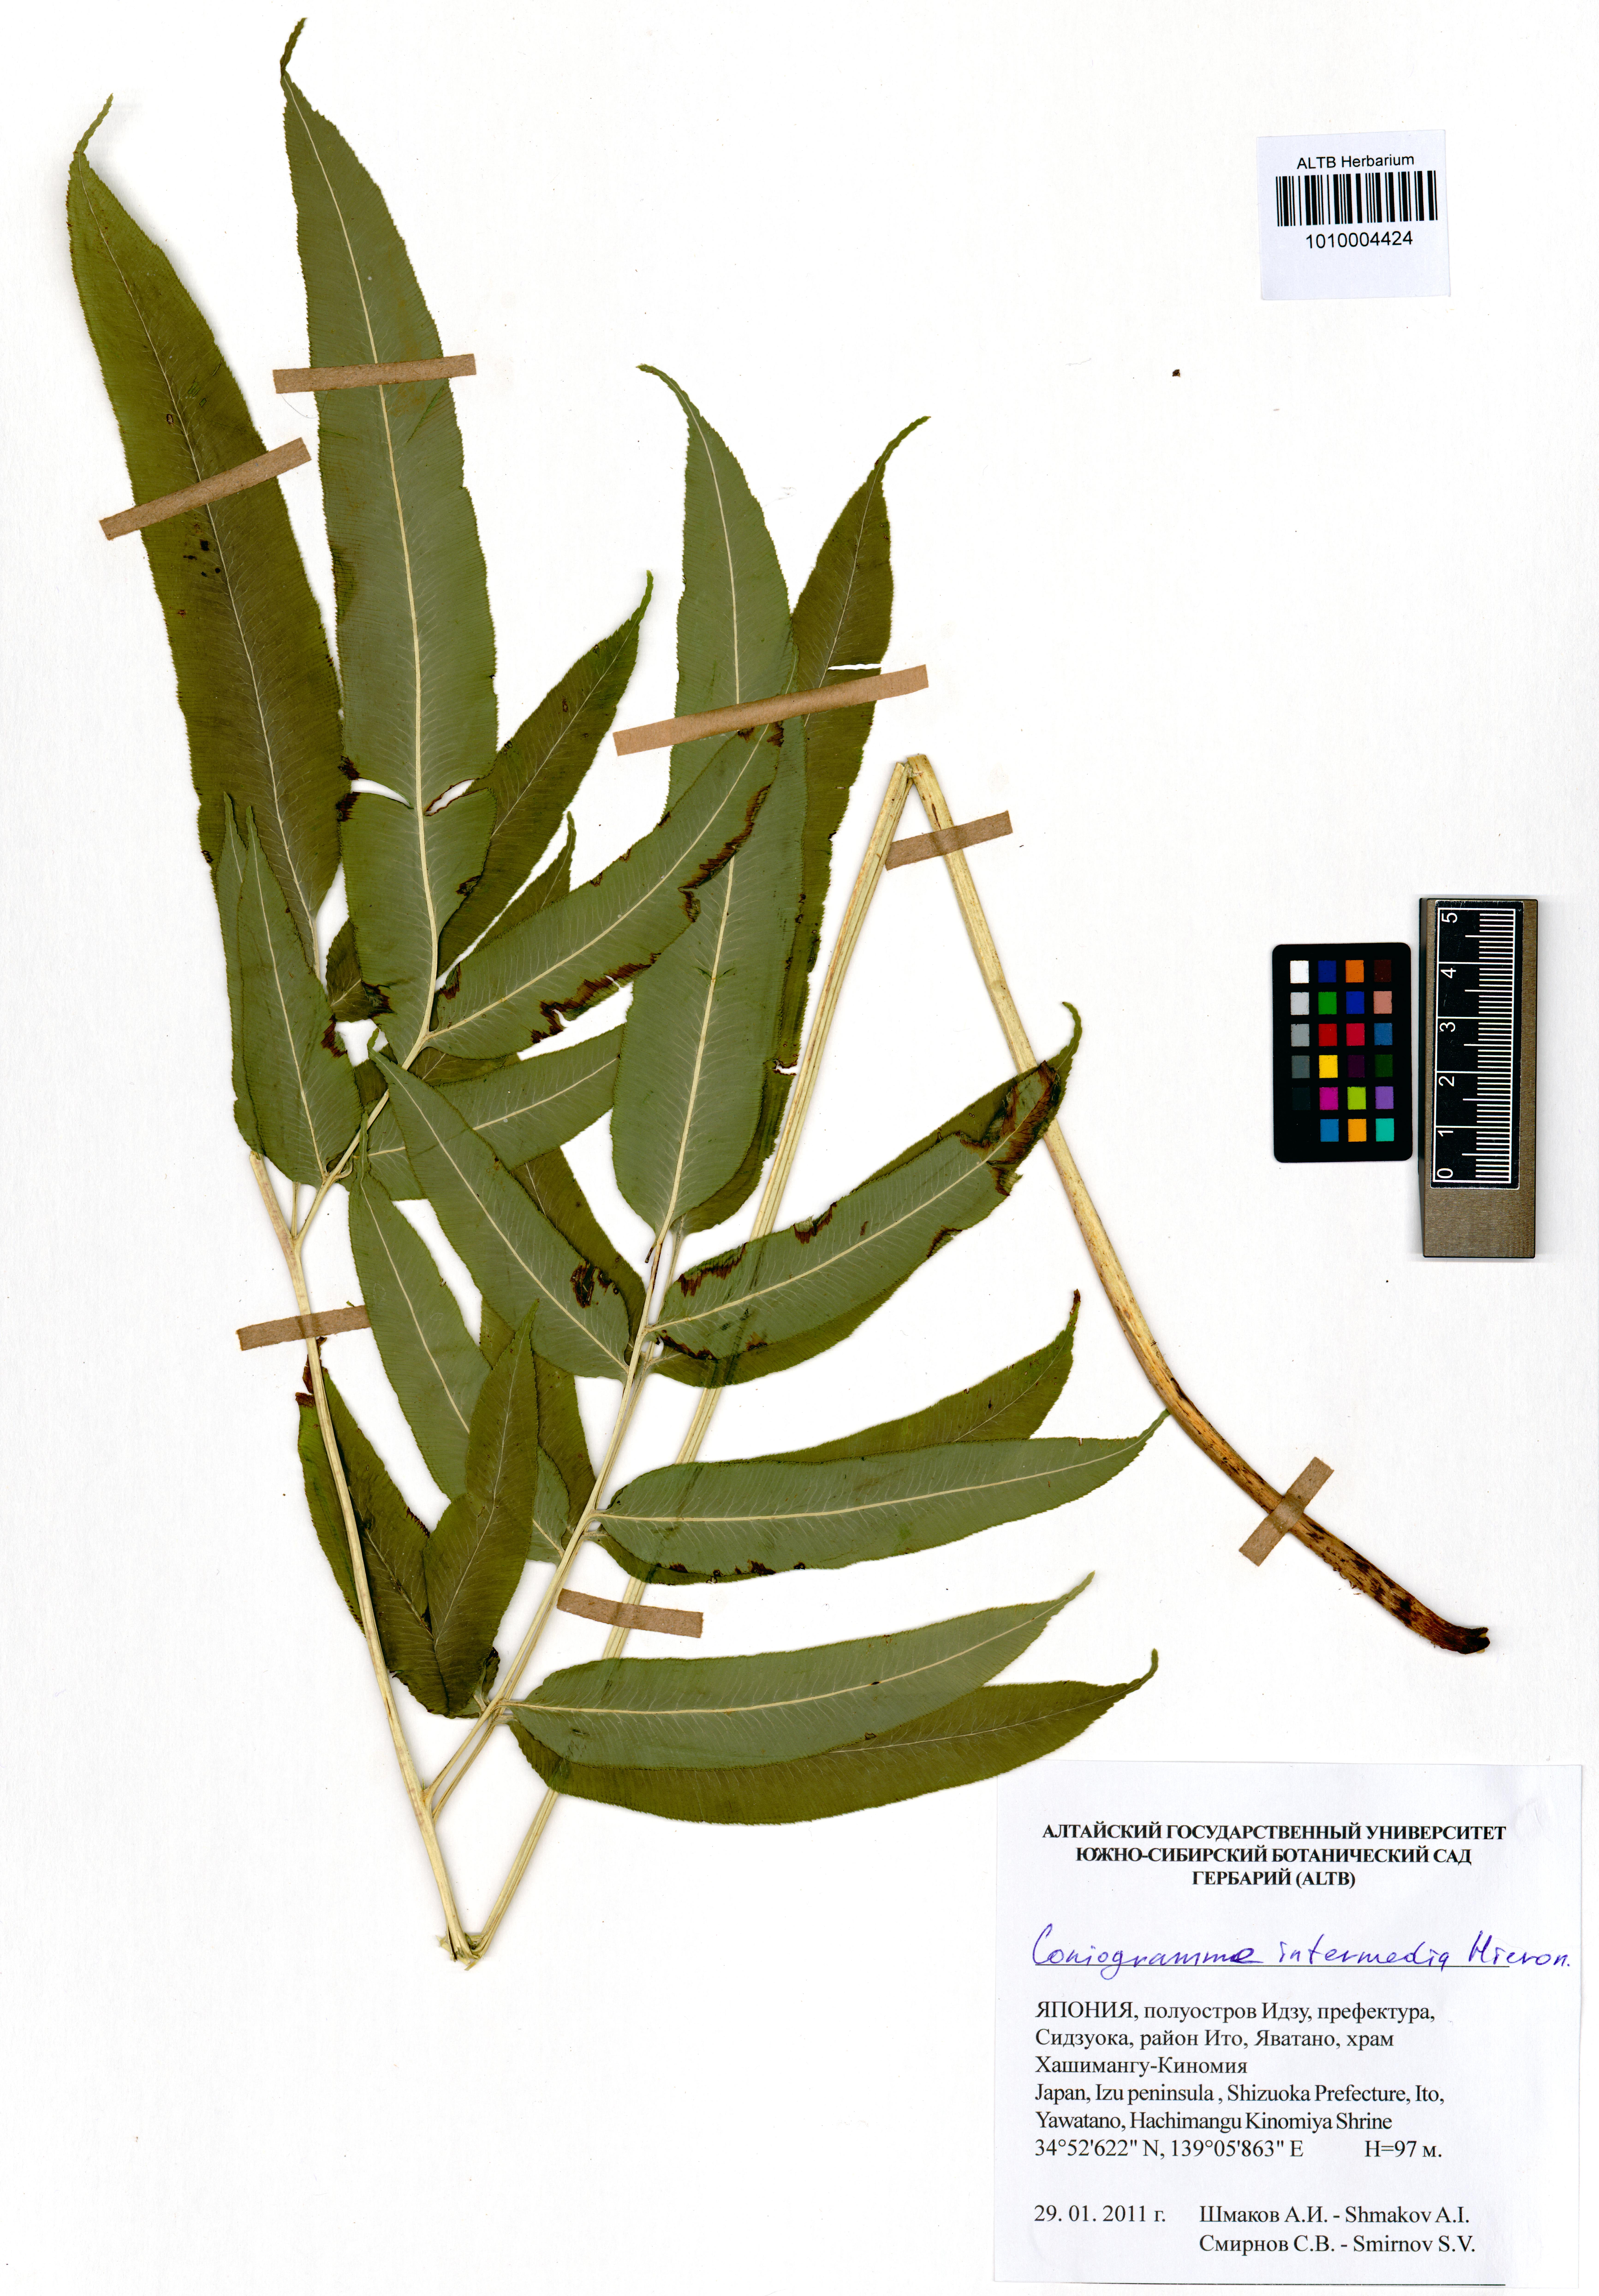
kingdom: Plantae
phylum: Tracheophyta
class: Polypodiopsida
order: Polypodiales
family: Pteridaceae
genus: Coniogramme
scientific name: Coniogramme intermedia
